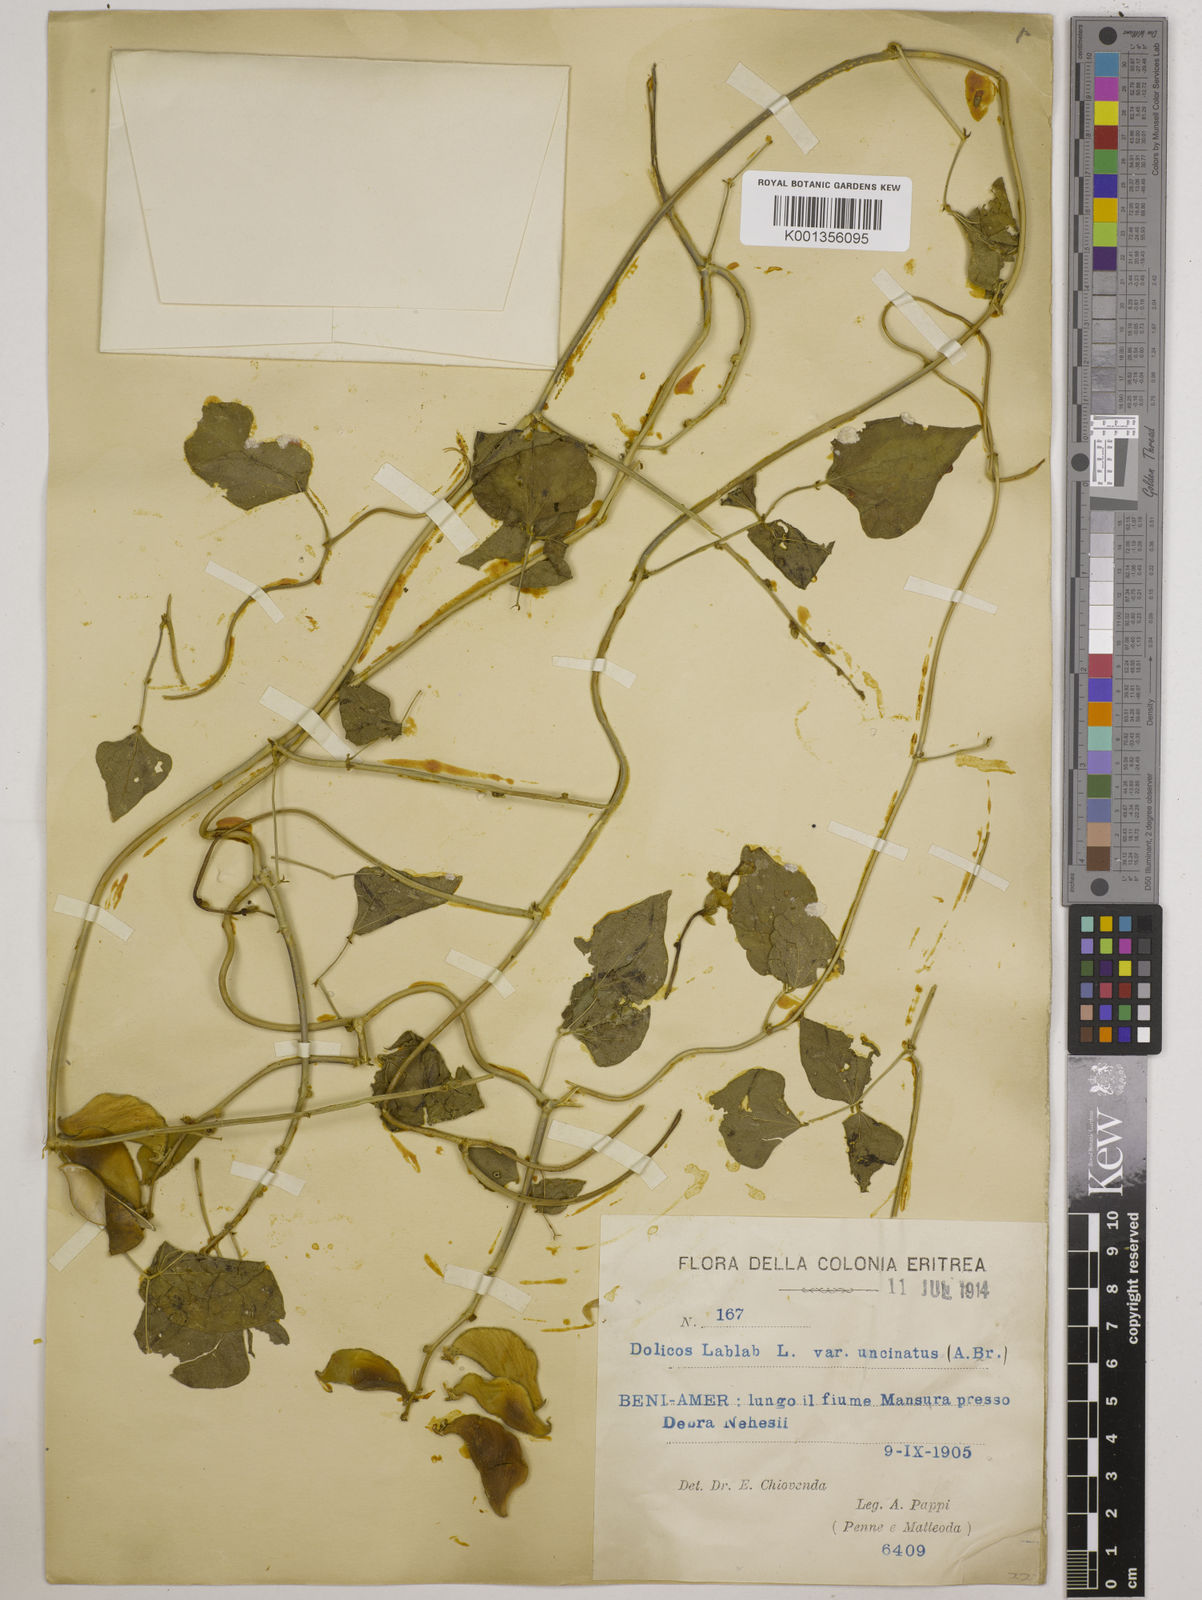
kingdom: Plantae
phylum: Tracheophyta
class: Magnoliopsida
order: Fabales
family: Fabaceae
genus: Lablab
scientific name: Lablab purpureus
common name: Lablab-bean
